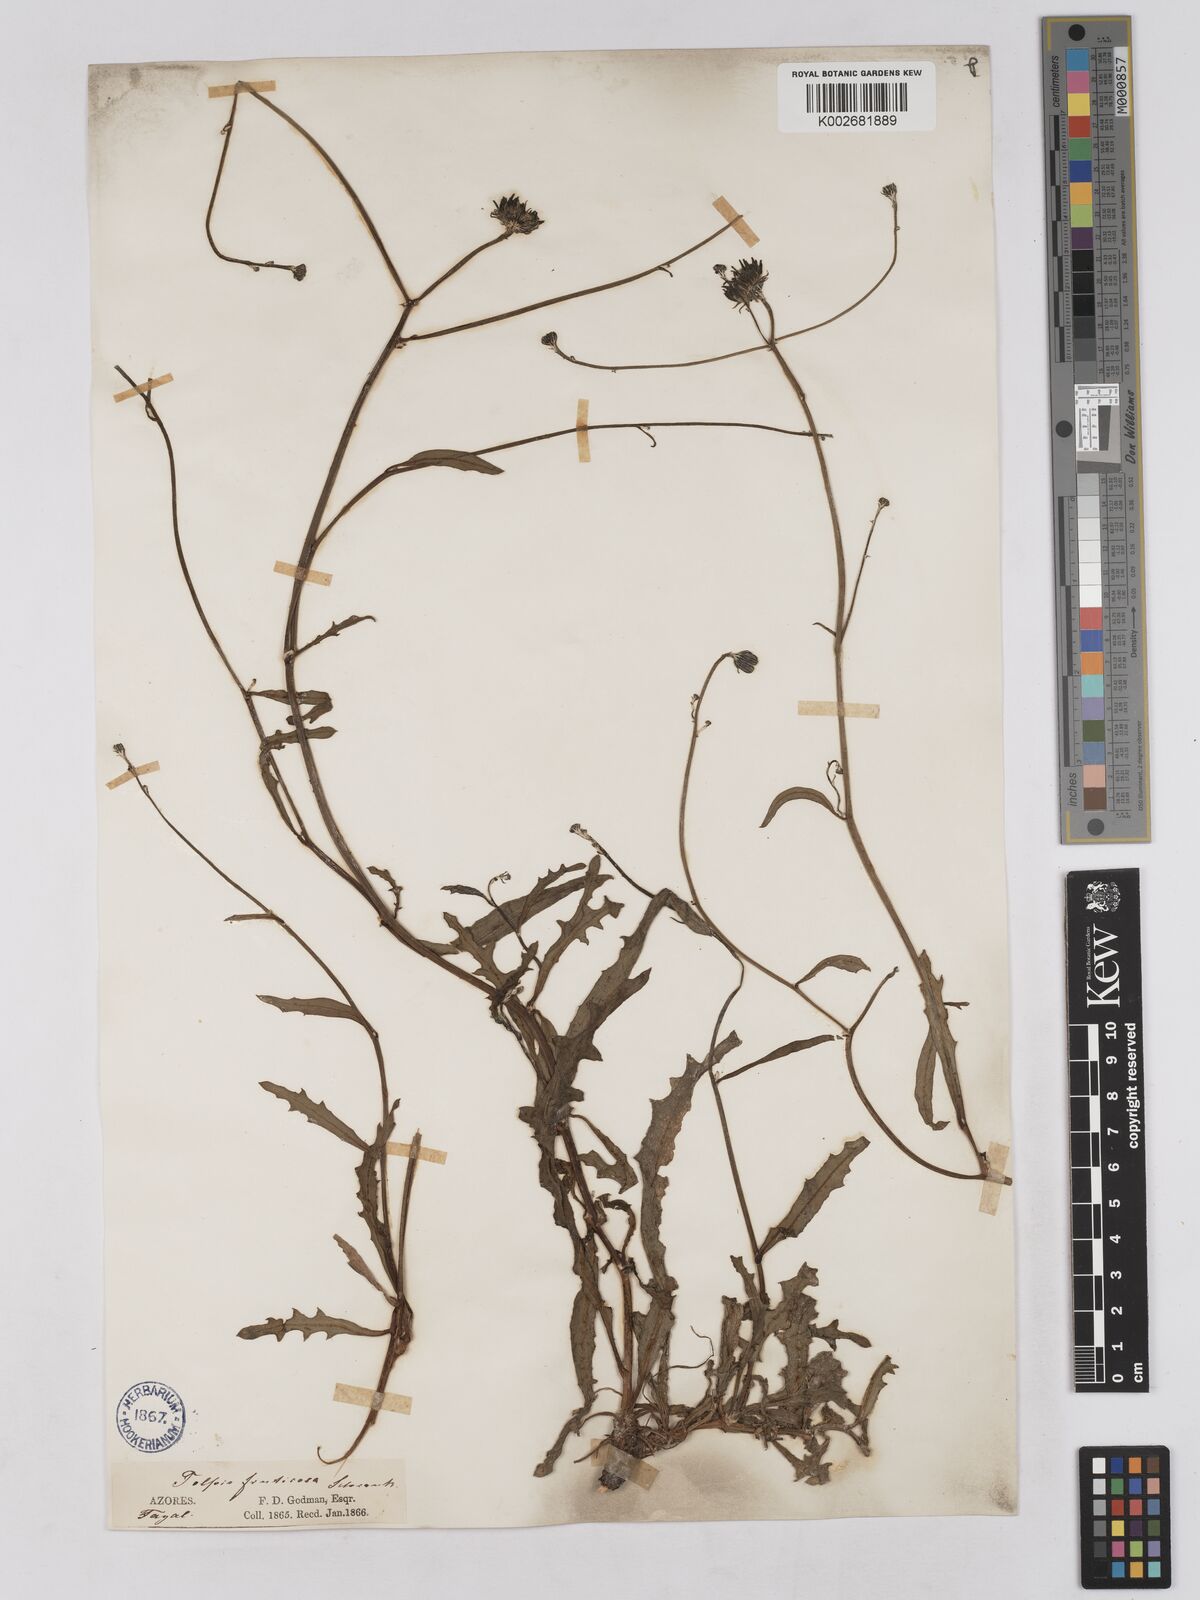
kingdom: Plantae
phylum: Tracheophyta
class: Magnoliopsida
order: Asterales
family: Asteraceae
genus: Tolpis
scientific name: Tolpis succulenta
